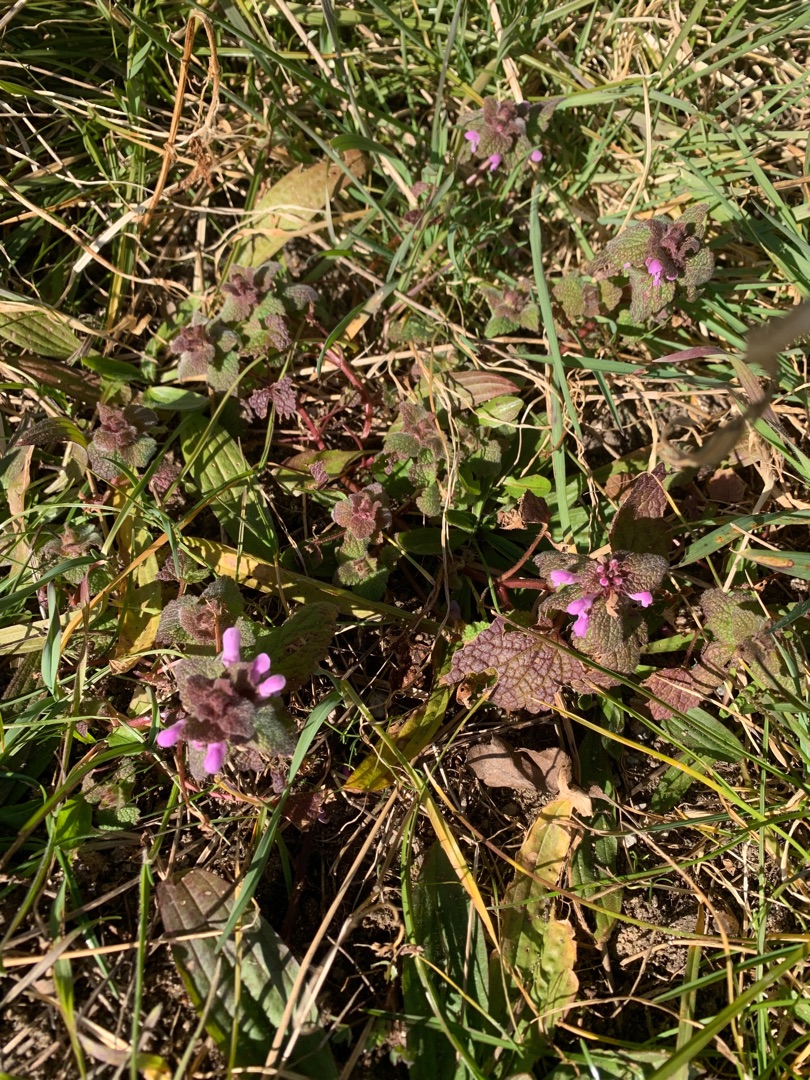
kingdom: Plantae
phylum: Tracheophyta
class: Magnoliopsida
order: Lamiales
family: Lamiaceae
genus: Lamium
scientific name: Lamium purpureum
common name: Rød tvetand
